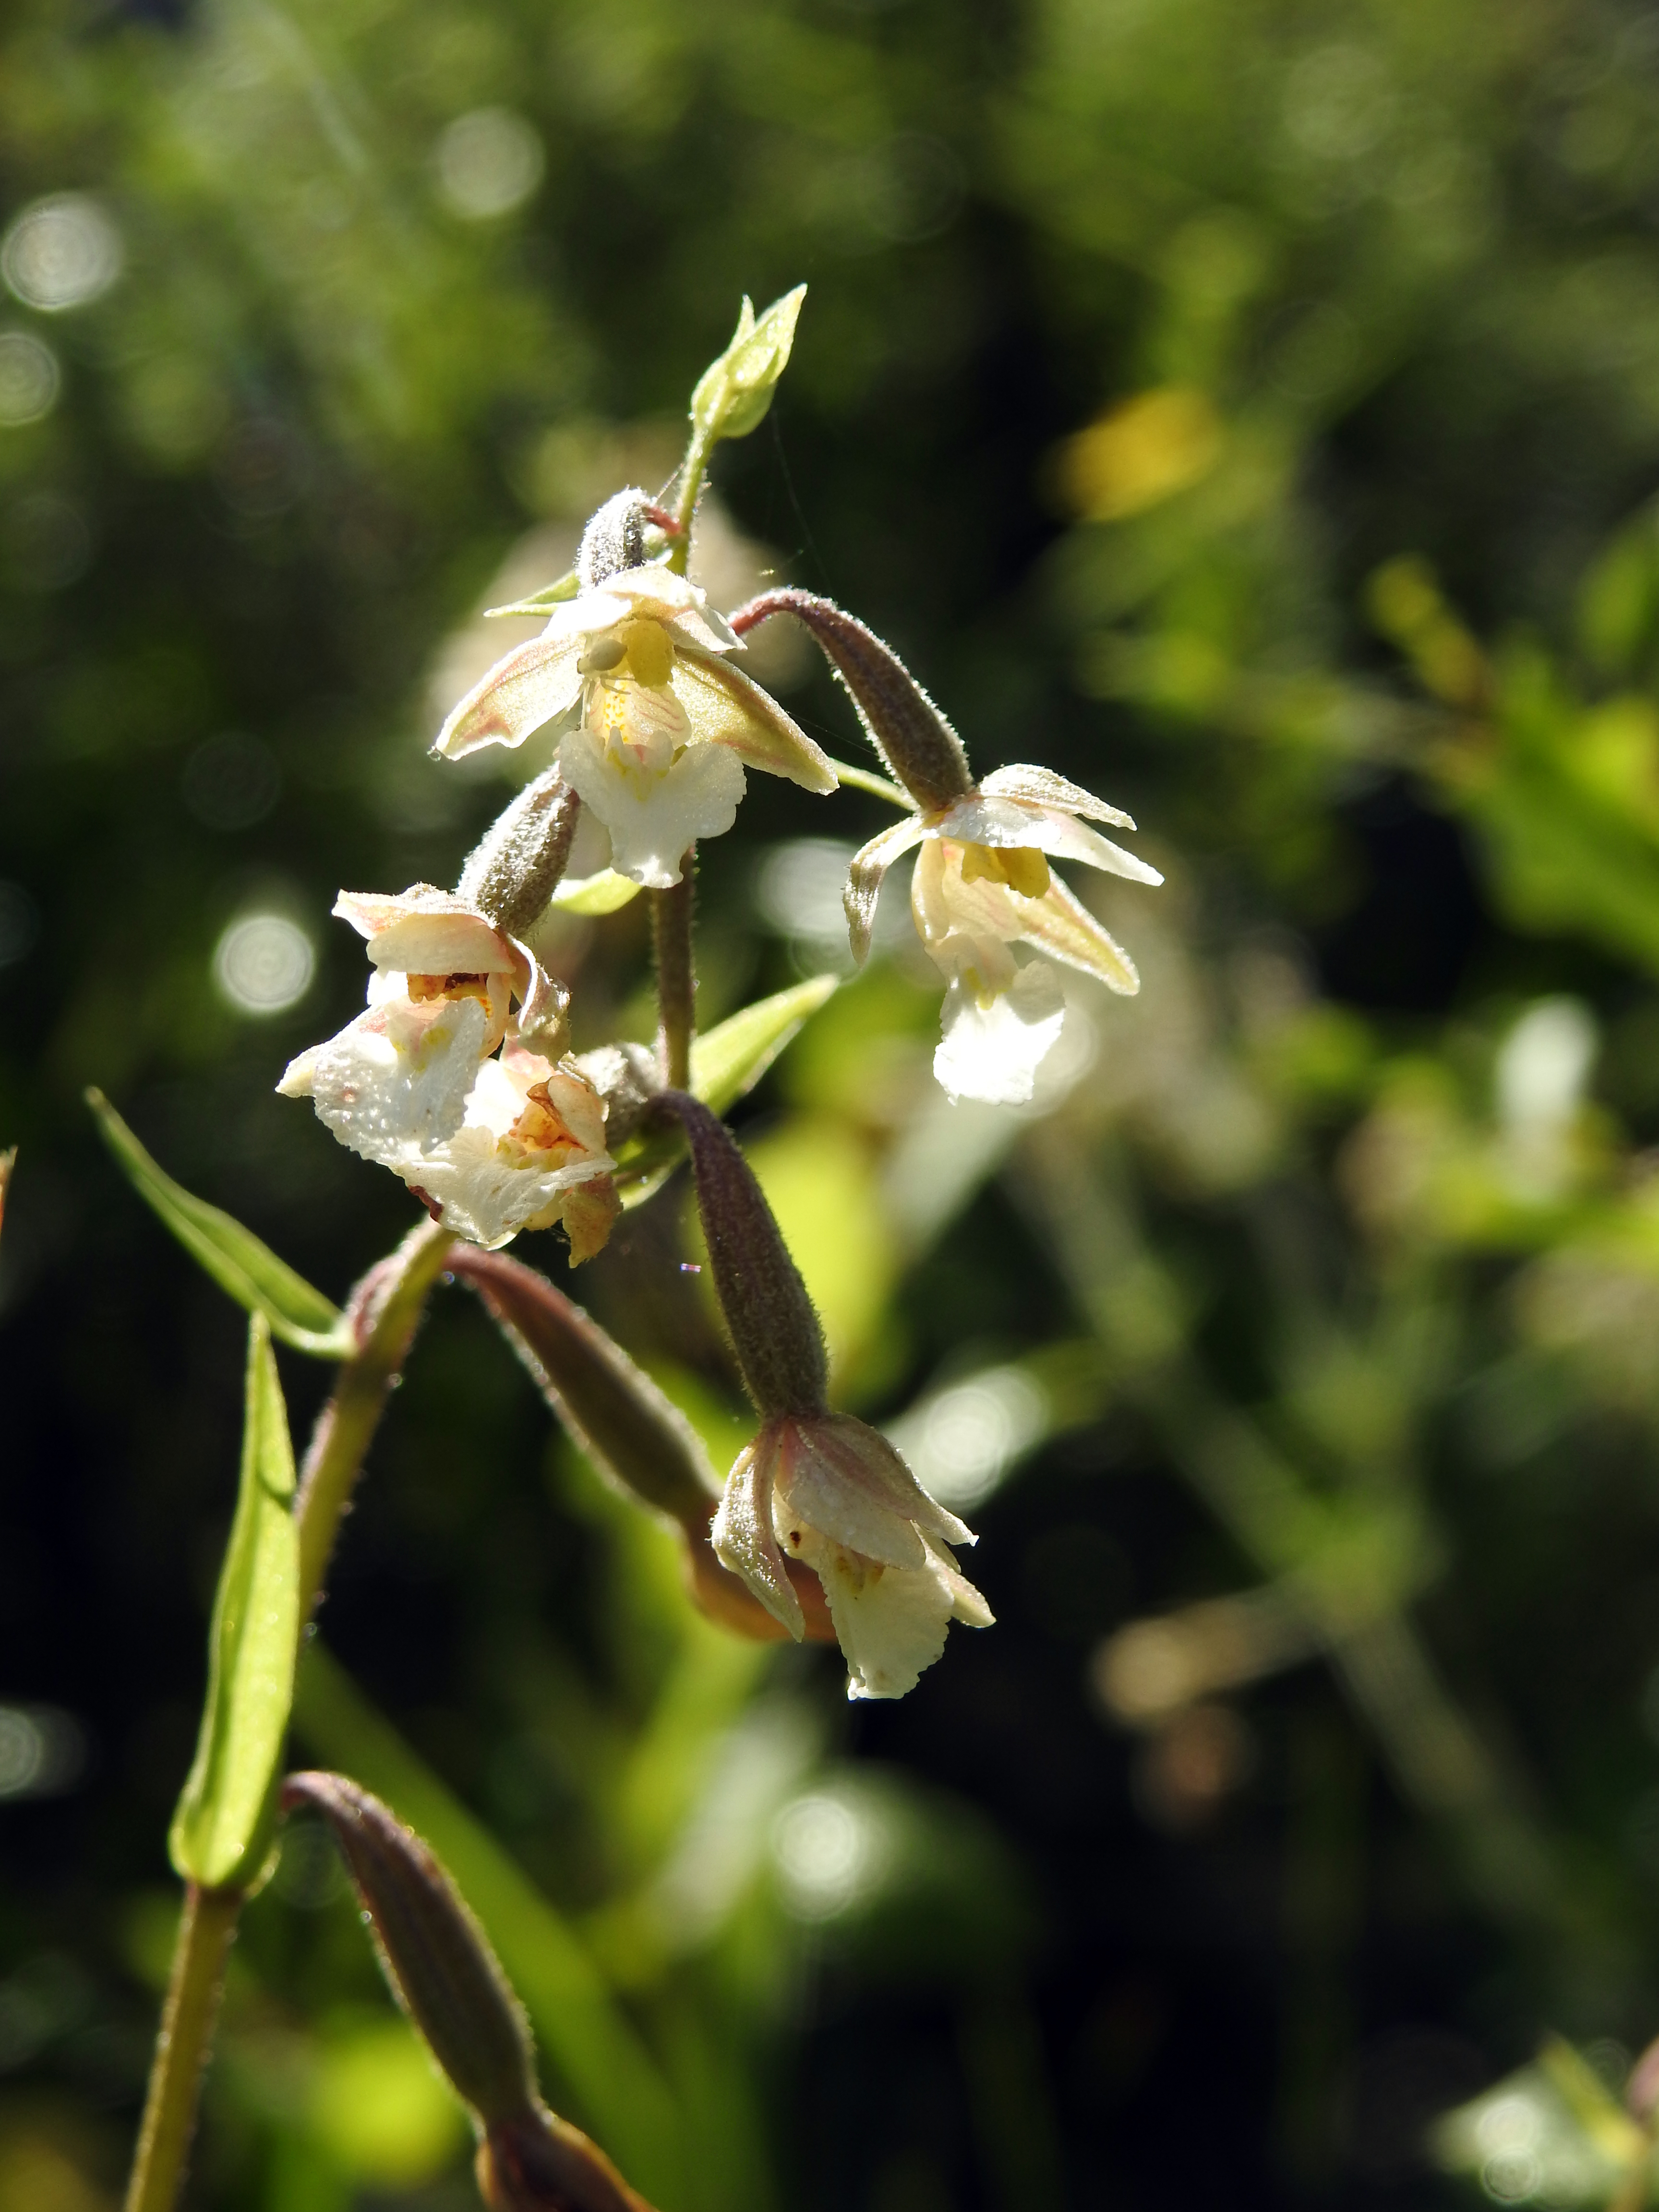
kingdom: Plantae
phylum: Tracheophyta
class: Liliopsida
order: Asparagales
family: Orchidaceae
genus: Epipactis
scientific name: Epipactis palustris
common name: Marsh helleborine
